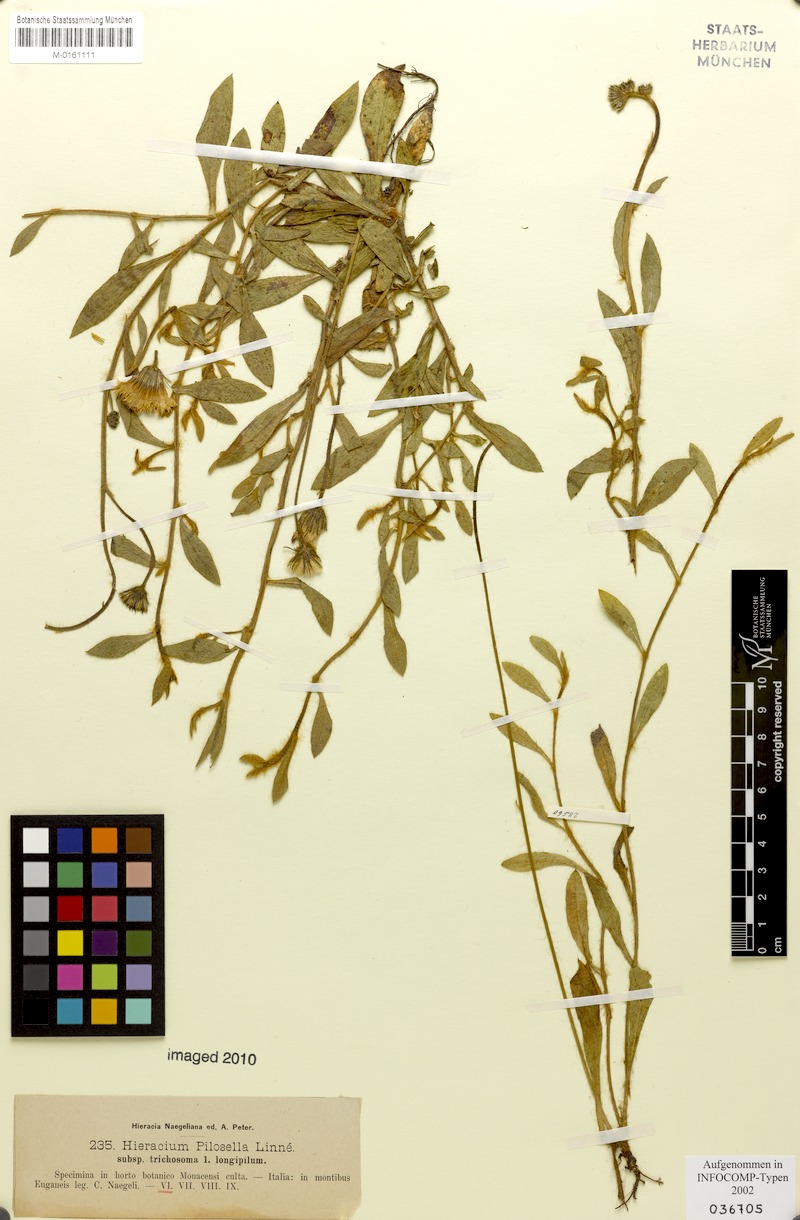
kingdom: Plantae
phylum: Tracheophyta
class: Magnoliopsida
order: Asterales
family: Asteraceae
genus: Pilosella
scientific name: Pilosella officinarum
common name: Mouse-ear hawkweed
